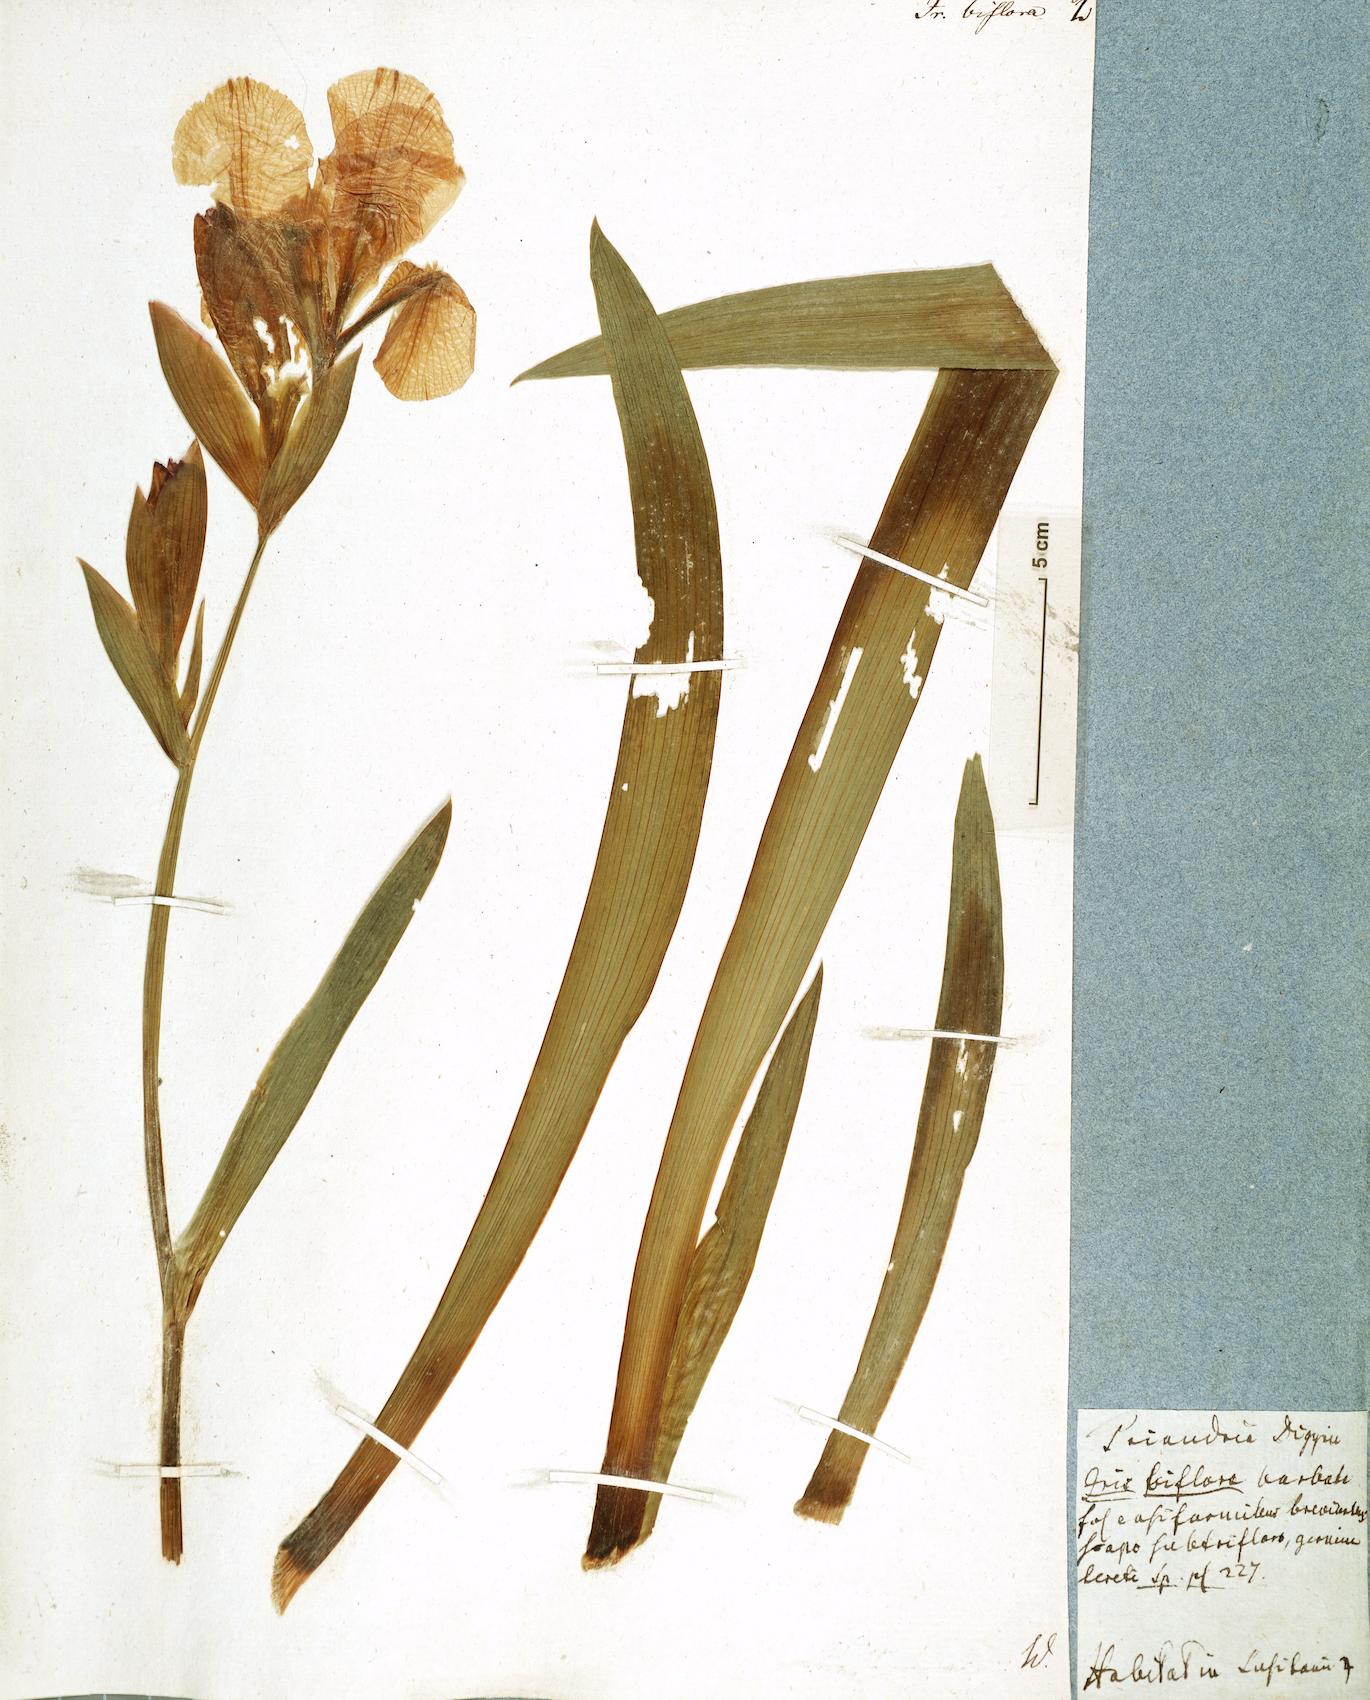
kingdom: Plantae
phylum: Tracheophyta
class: Liliopsida
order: Asparagales
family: Iridaceae
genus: Iris
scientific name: Iris aphylla
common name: Stool iris
